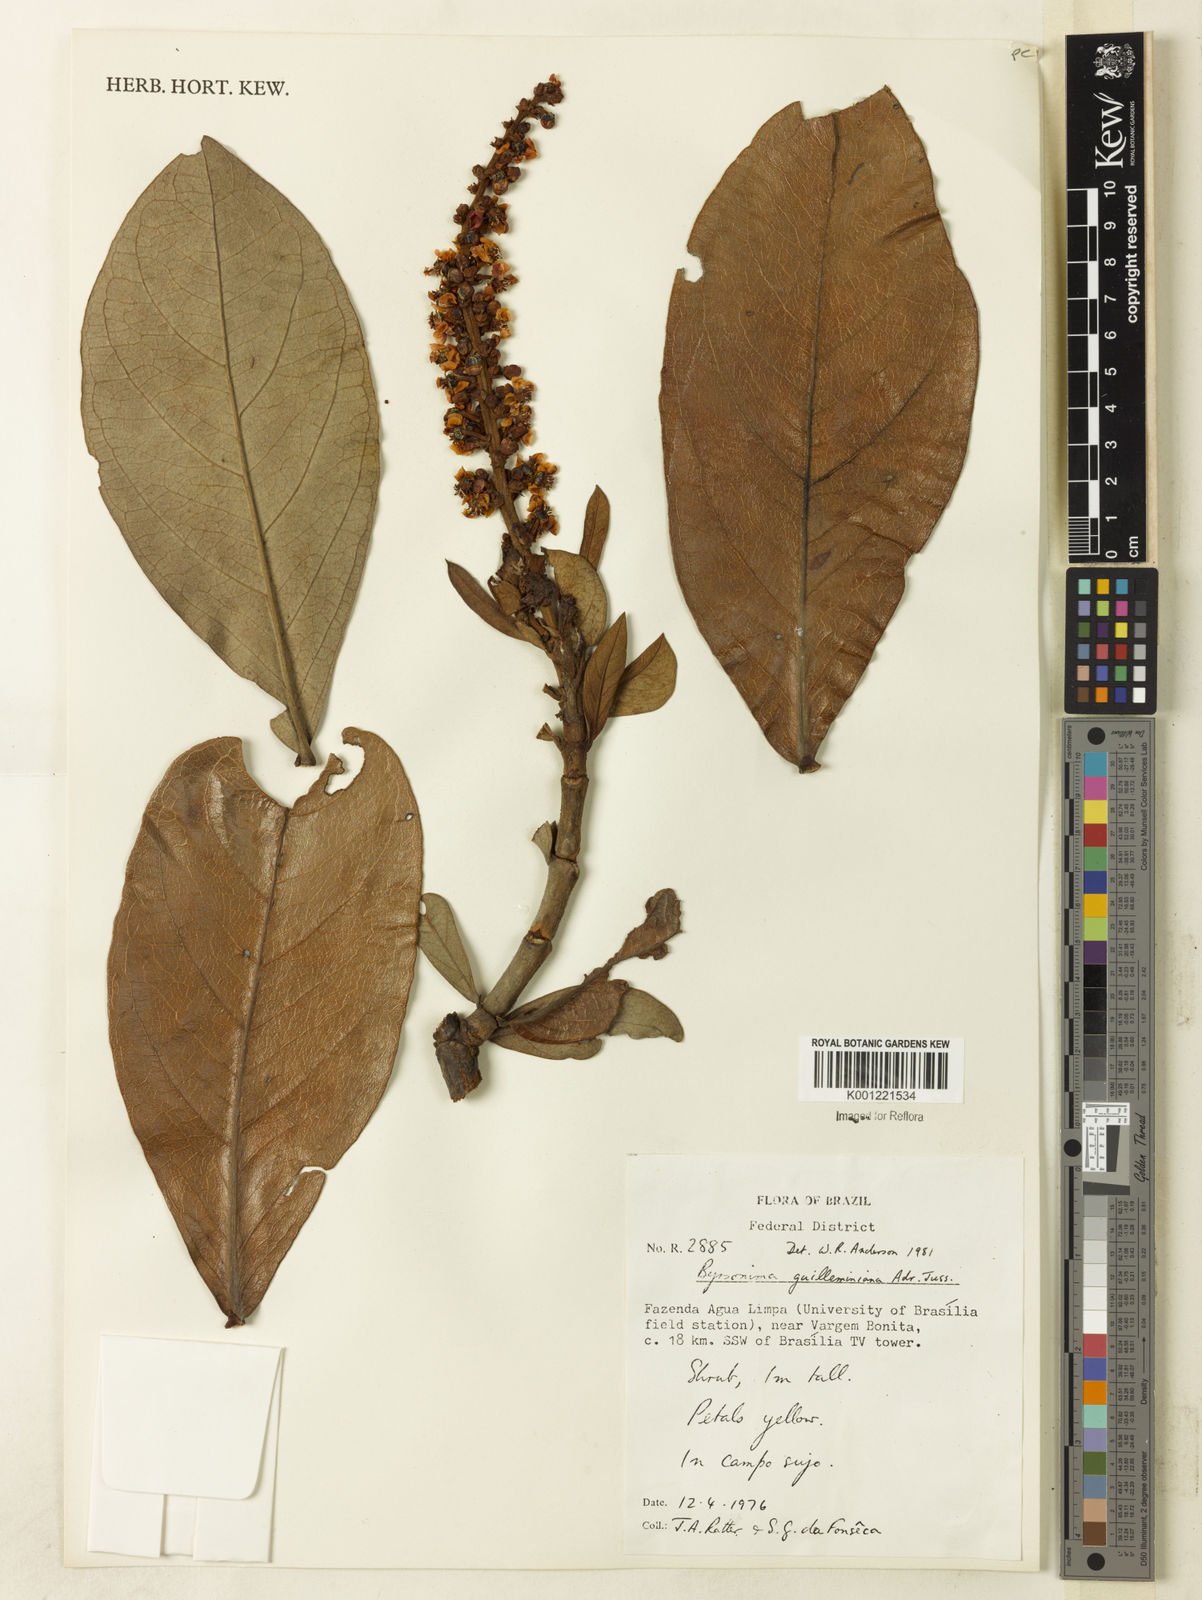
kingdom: Plantae
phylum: Tracheophyta
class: Magnoliopsida
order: Malpighiales
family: Malpighiaceae
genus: Byrsonima
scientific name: Byrsonima guilleminiana
